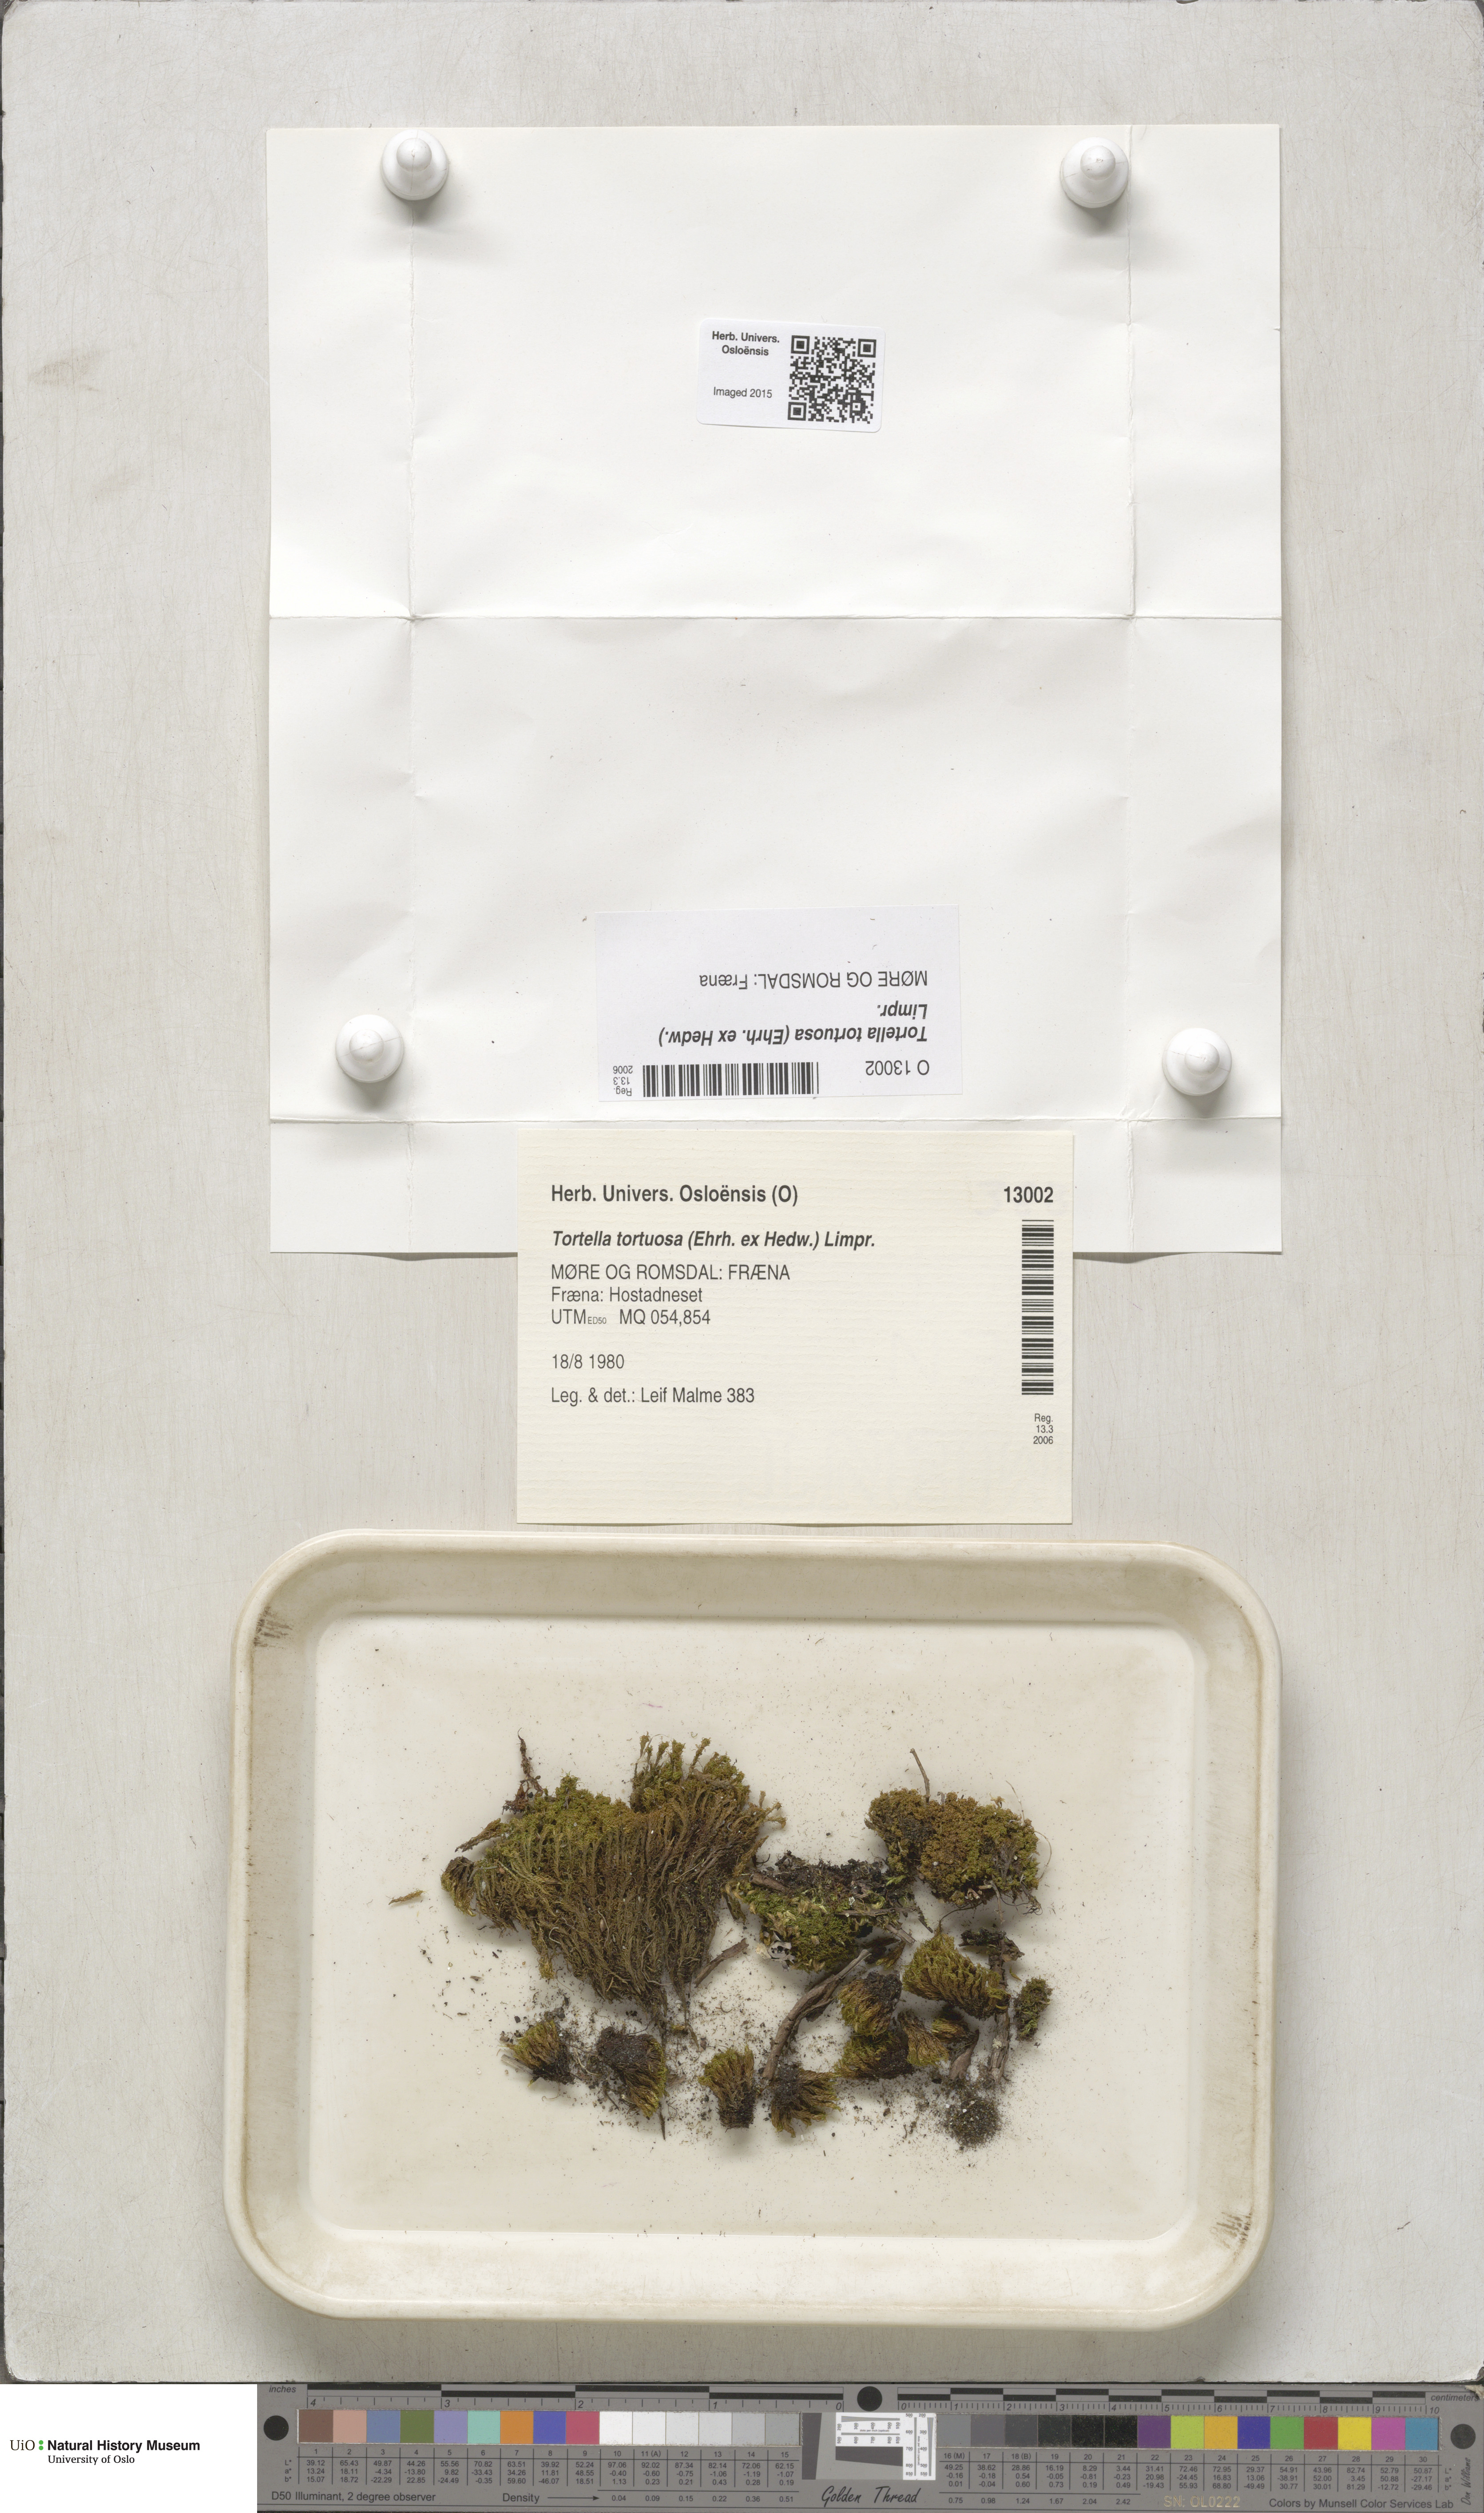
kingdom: Plantae
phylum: Bryophyta
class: Bryopsida
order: Pottiales
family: Pottiaceae
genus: Tortella
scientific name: Tortella tortuosa
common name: Frizzled crisp moss
